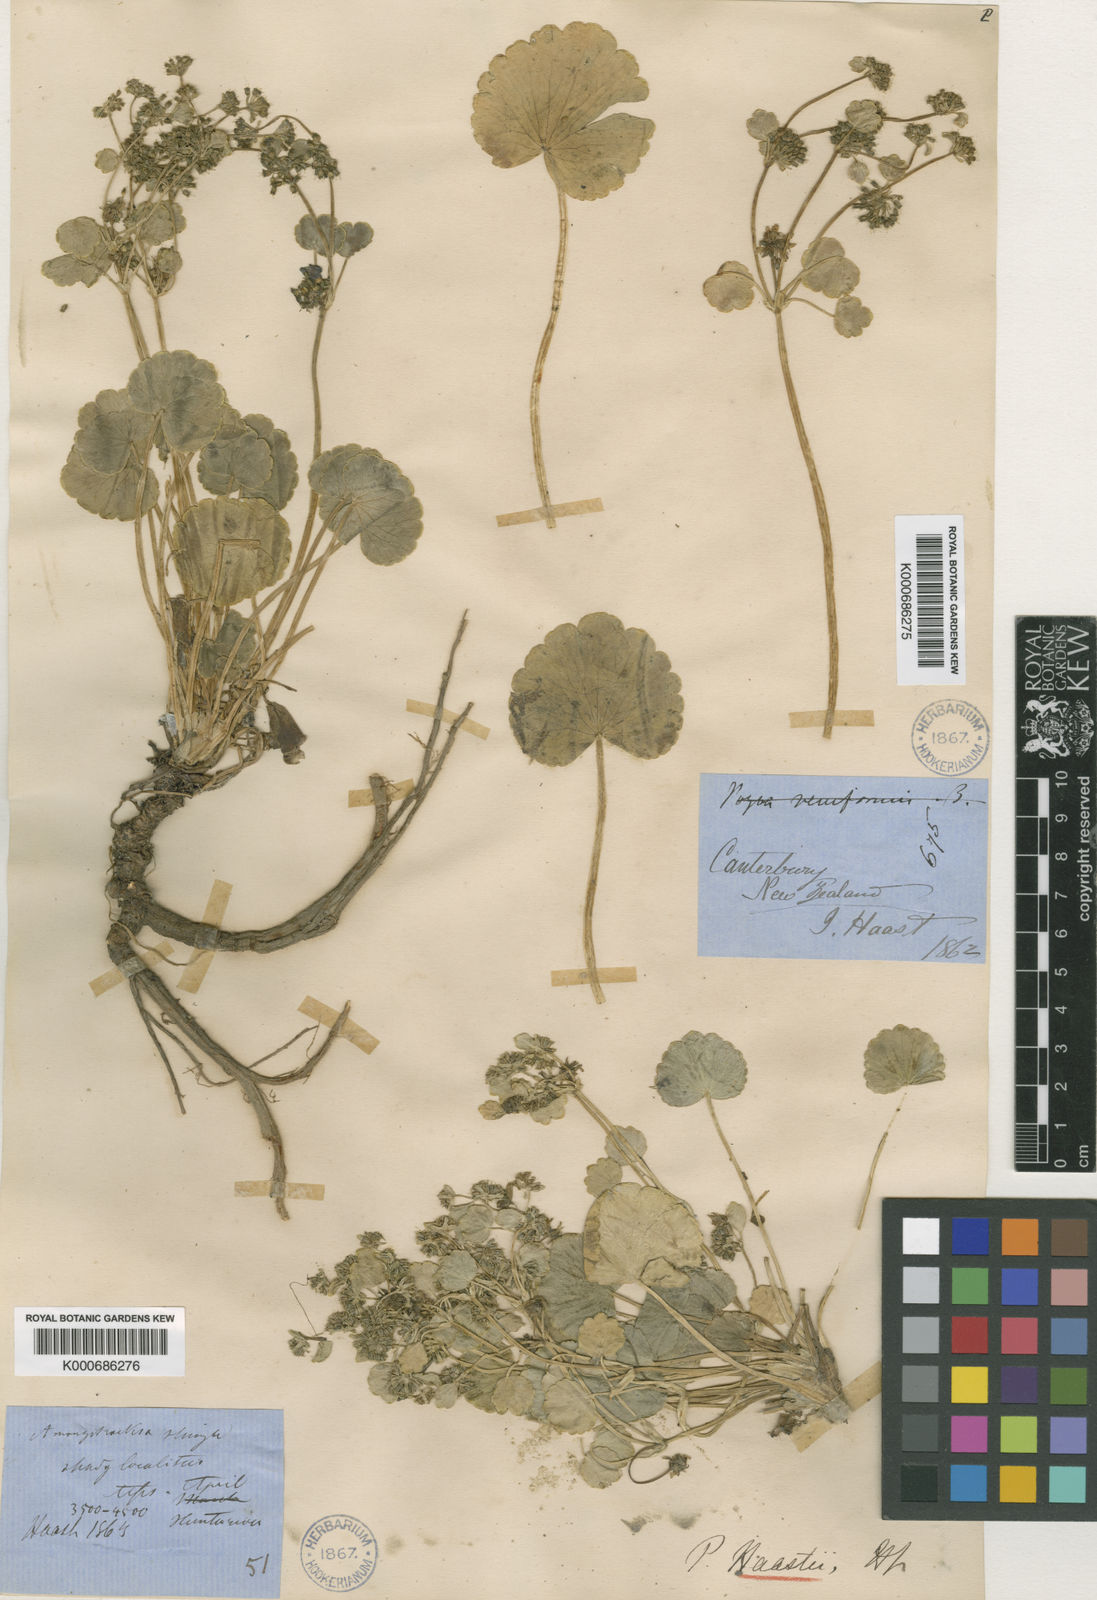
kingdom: Plantae
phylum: Tracheophyta
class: Magnoliopsida
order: Apiales
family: Apiaceae
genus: Azorella
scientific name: Azorella haastii
